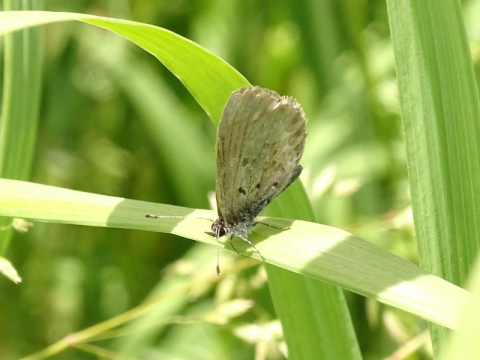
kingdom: Animalia
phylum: Arthropoda
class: Insecta
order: Lepidoptera
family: Lycaenidae
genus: Celastrina
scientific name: Celastrina lucia
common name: Northern Spring Azure
